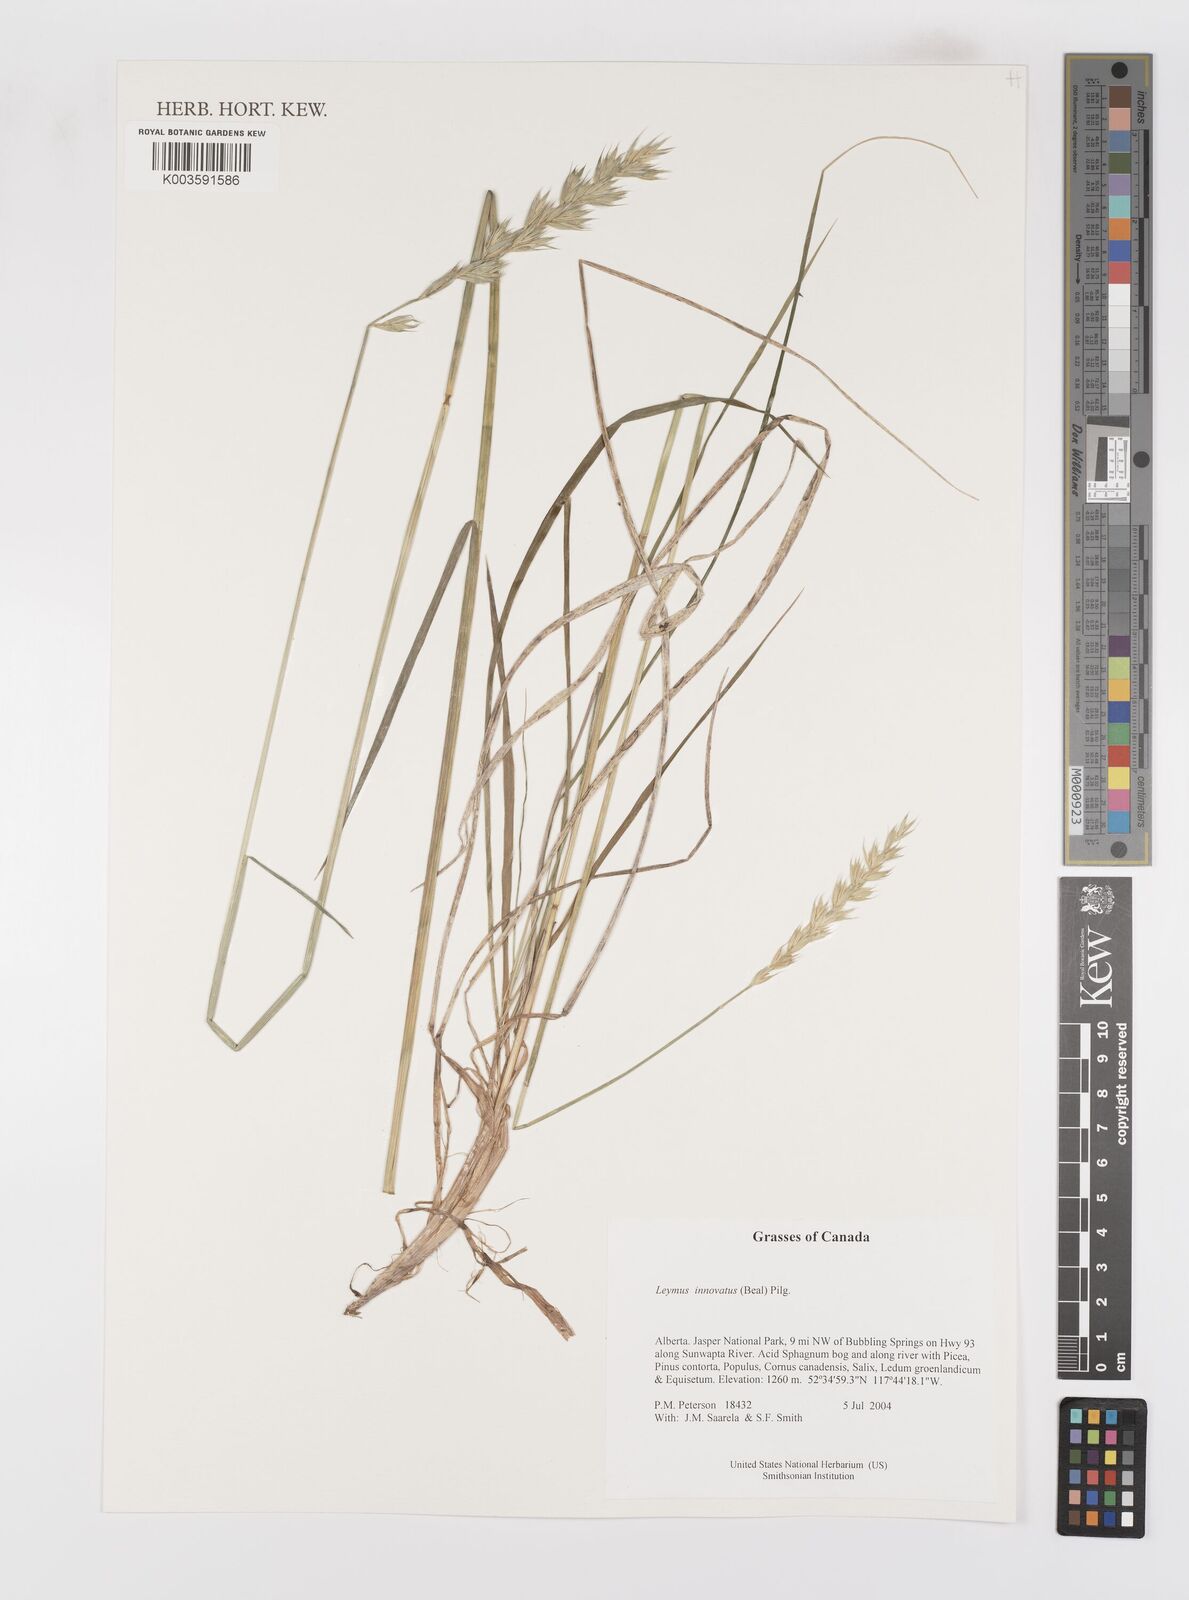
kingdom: Plantae
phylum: Tracheophyta
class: Liliopsida
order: Poales
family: Poaceae
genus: Leymus
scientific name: Leymus innovatus
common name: Boreal wild rye
